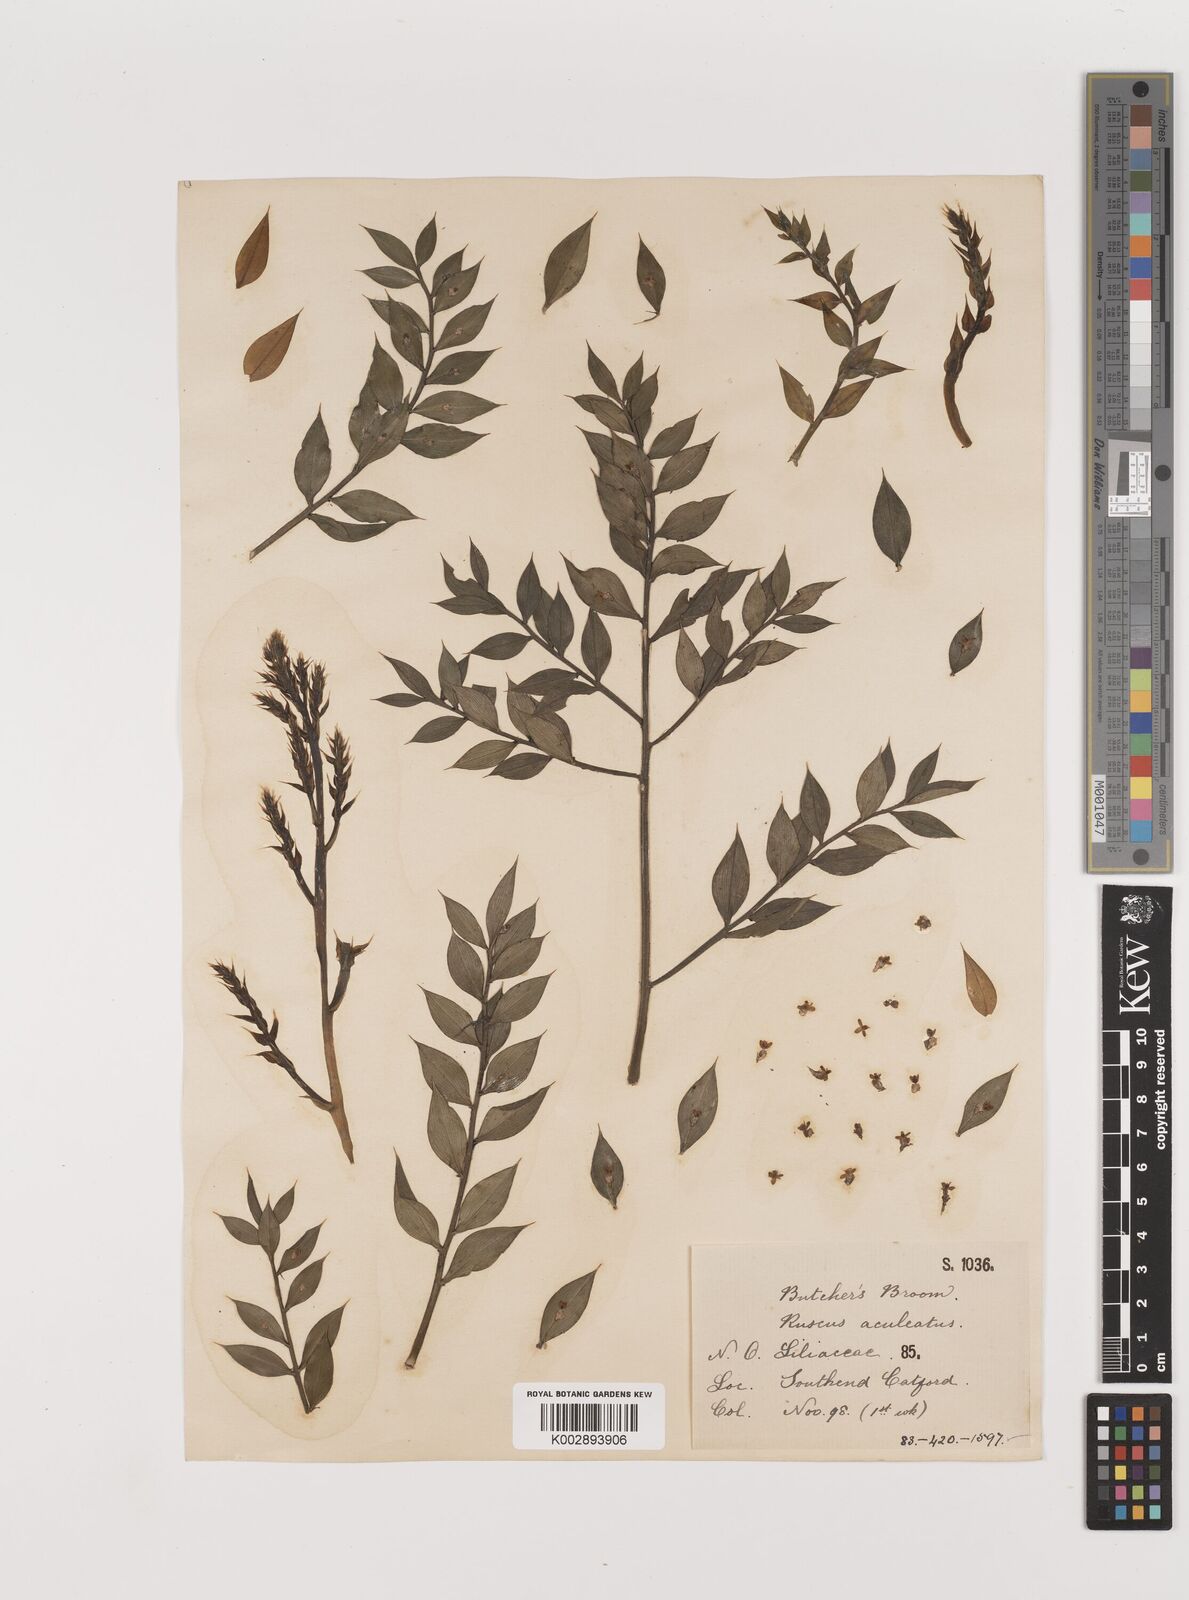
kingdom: Plantae
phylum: Tracheophyta
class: Liliopsida
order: Asparagales
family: Asparagaceae
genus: Ruscus
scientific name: Ruscus aculeatus
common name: Butcher's-broom
